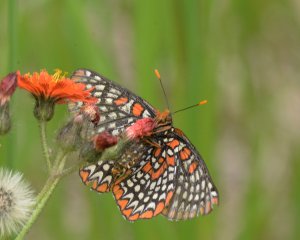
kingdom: Animalia
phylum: Arthropoda
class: Insecta
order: Lepidoptera
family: Nymphalidae
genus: Euphydryas
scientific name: Euphydryas phaeton
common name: Baltimore Checkerspot
